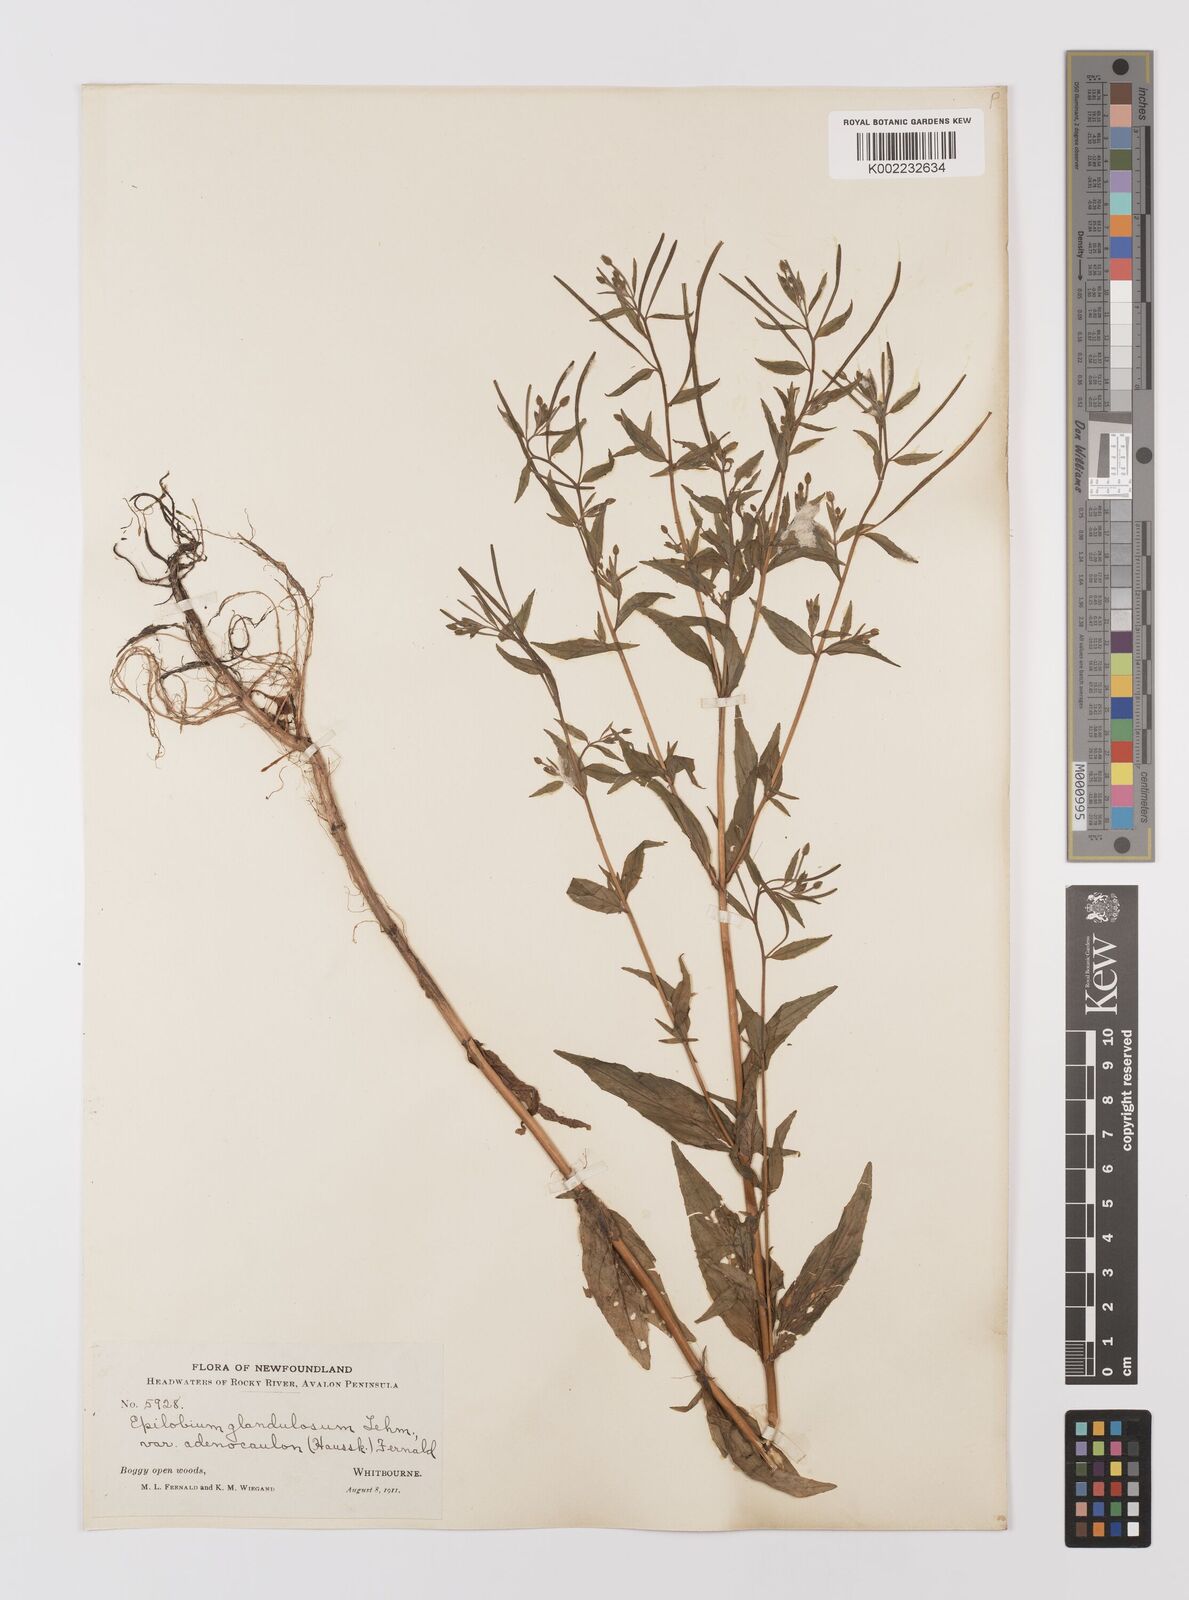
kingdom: Plantae
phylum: Tracheophyta
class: Magnoliopsida
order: Myrtales
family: Onagraceae
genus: Epilobium
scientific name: Epilobium ciliatum
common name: American willowherb
